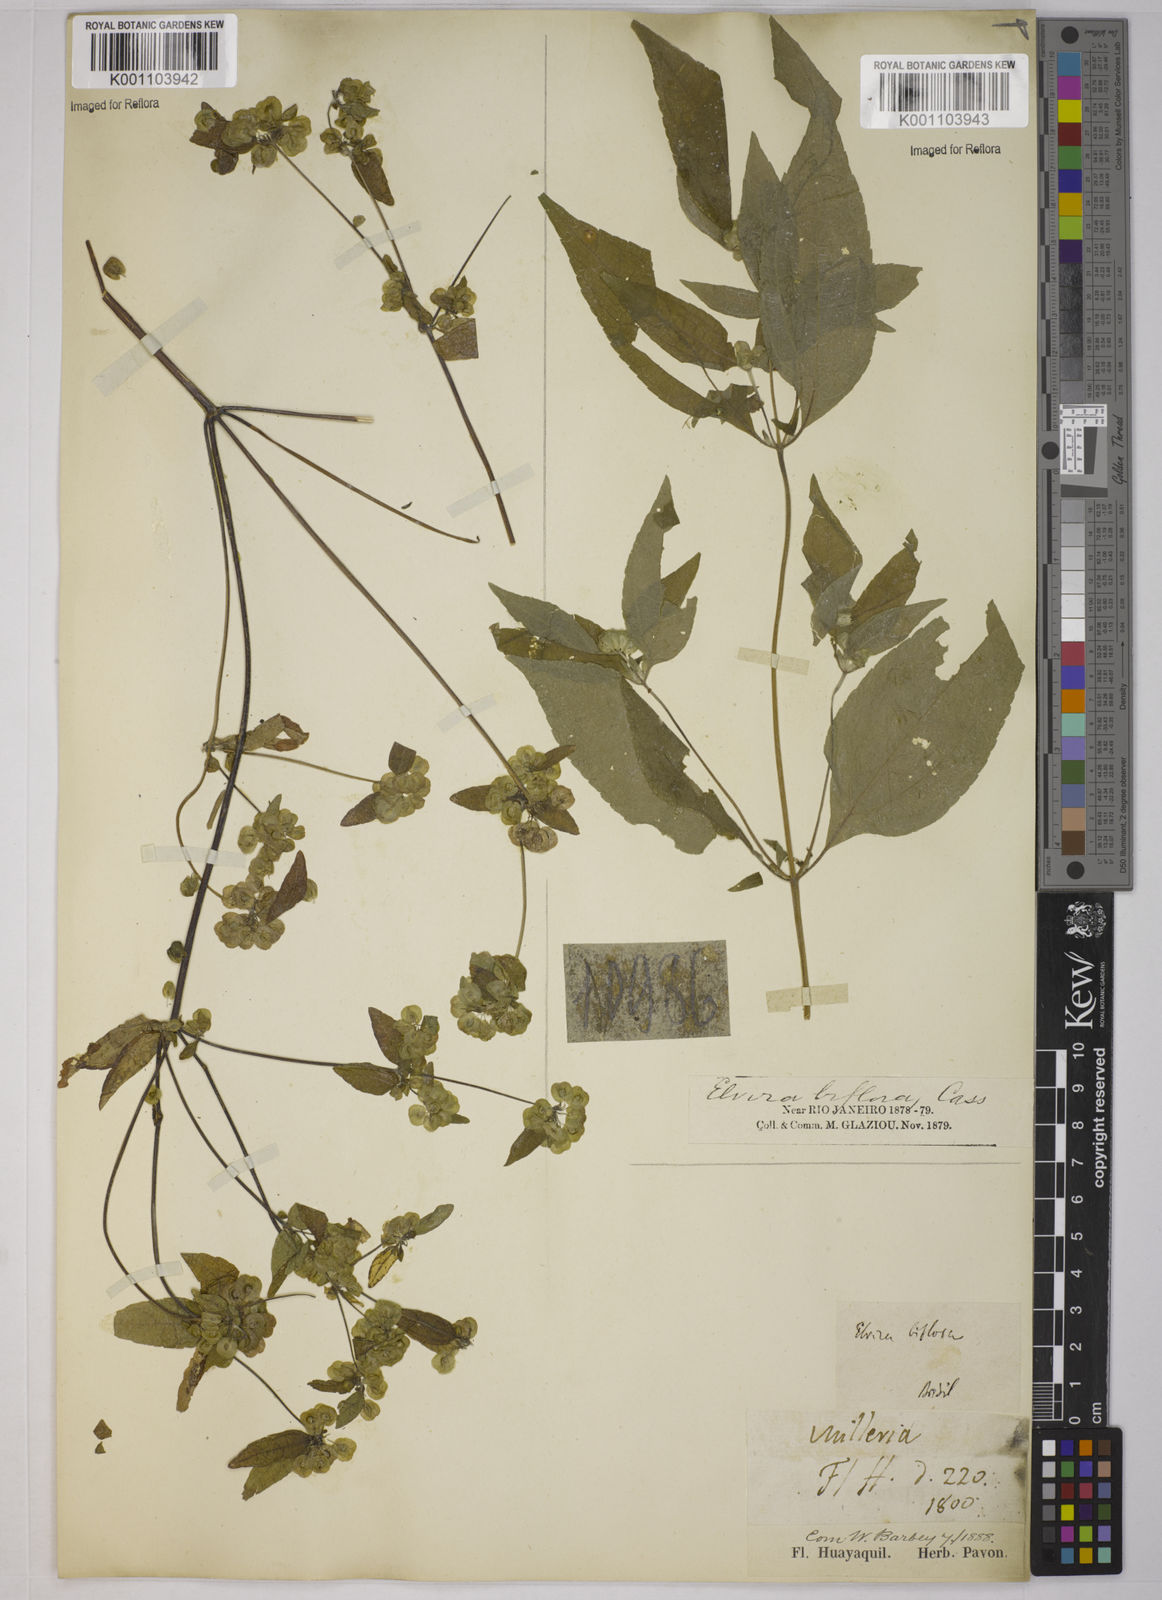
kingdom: Plantae
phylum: Tracheophyta
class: Magnoliopsida
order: Asterales
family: Asteraceae
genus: Delilia
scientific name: Delilia biflora
